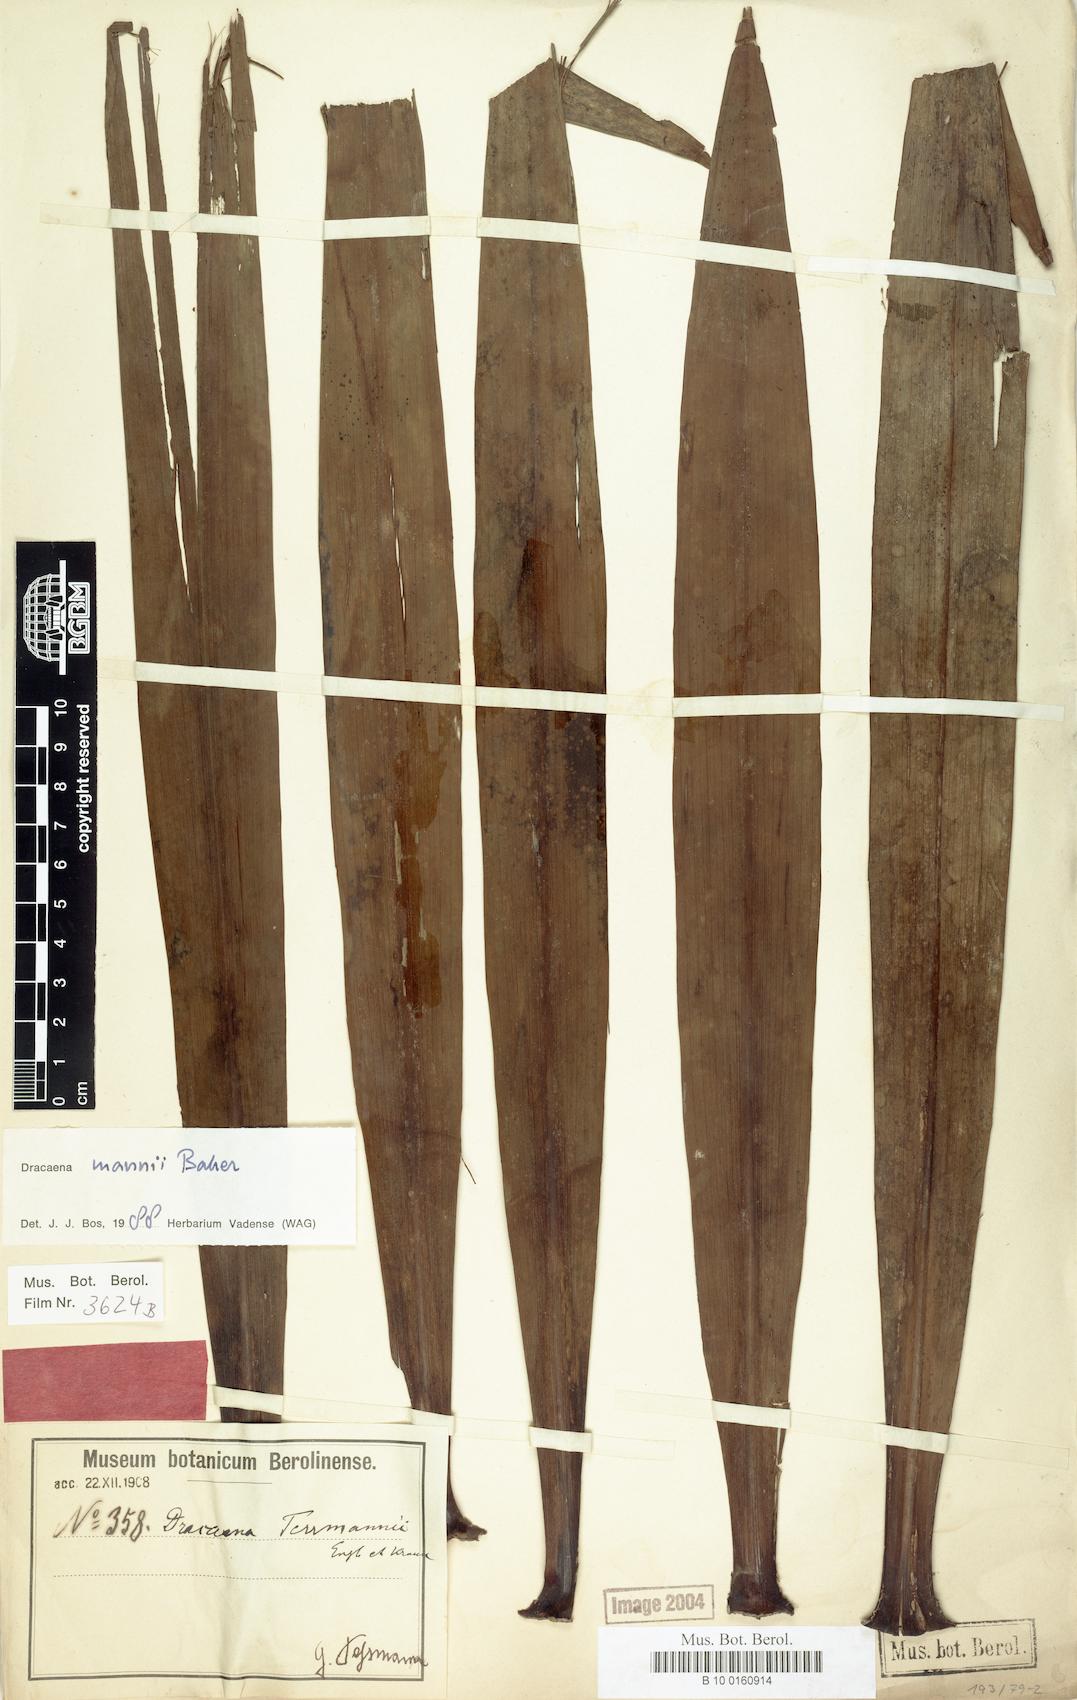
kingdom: Plantae
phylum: Tracheophyta
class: Liliopsida
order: Asparagales
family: Asparagaceae
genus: Dracaena
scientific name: Dracaena mannii
